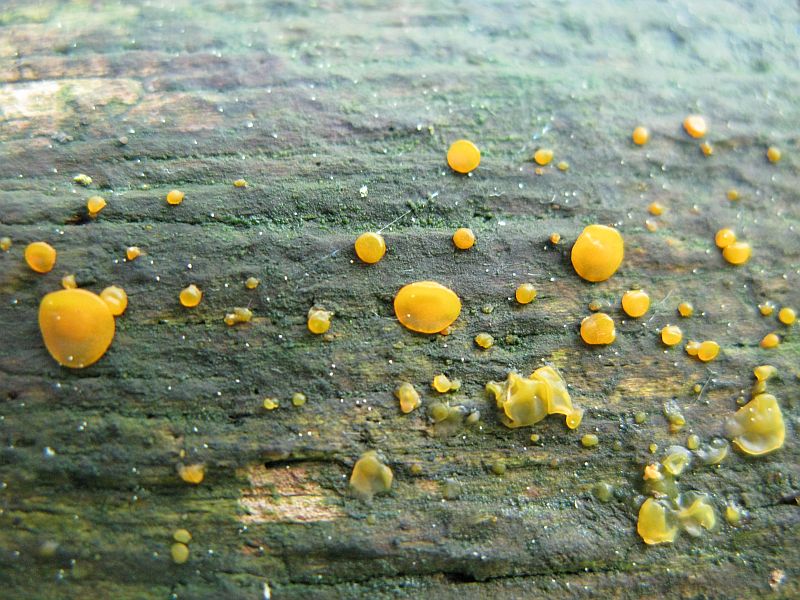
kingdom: Fungi
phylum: Basidiomycota
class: Dacrymycetes
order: Dacrymycetales
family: Dacrymycetaceae
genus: Dacrymyces
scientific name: Dacrymyces lacrymalis
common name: rynket tåresvamp
